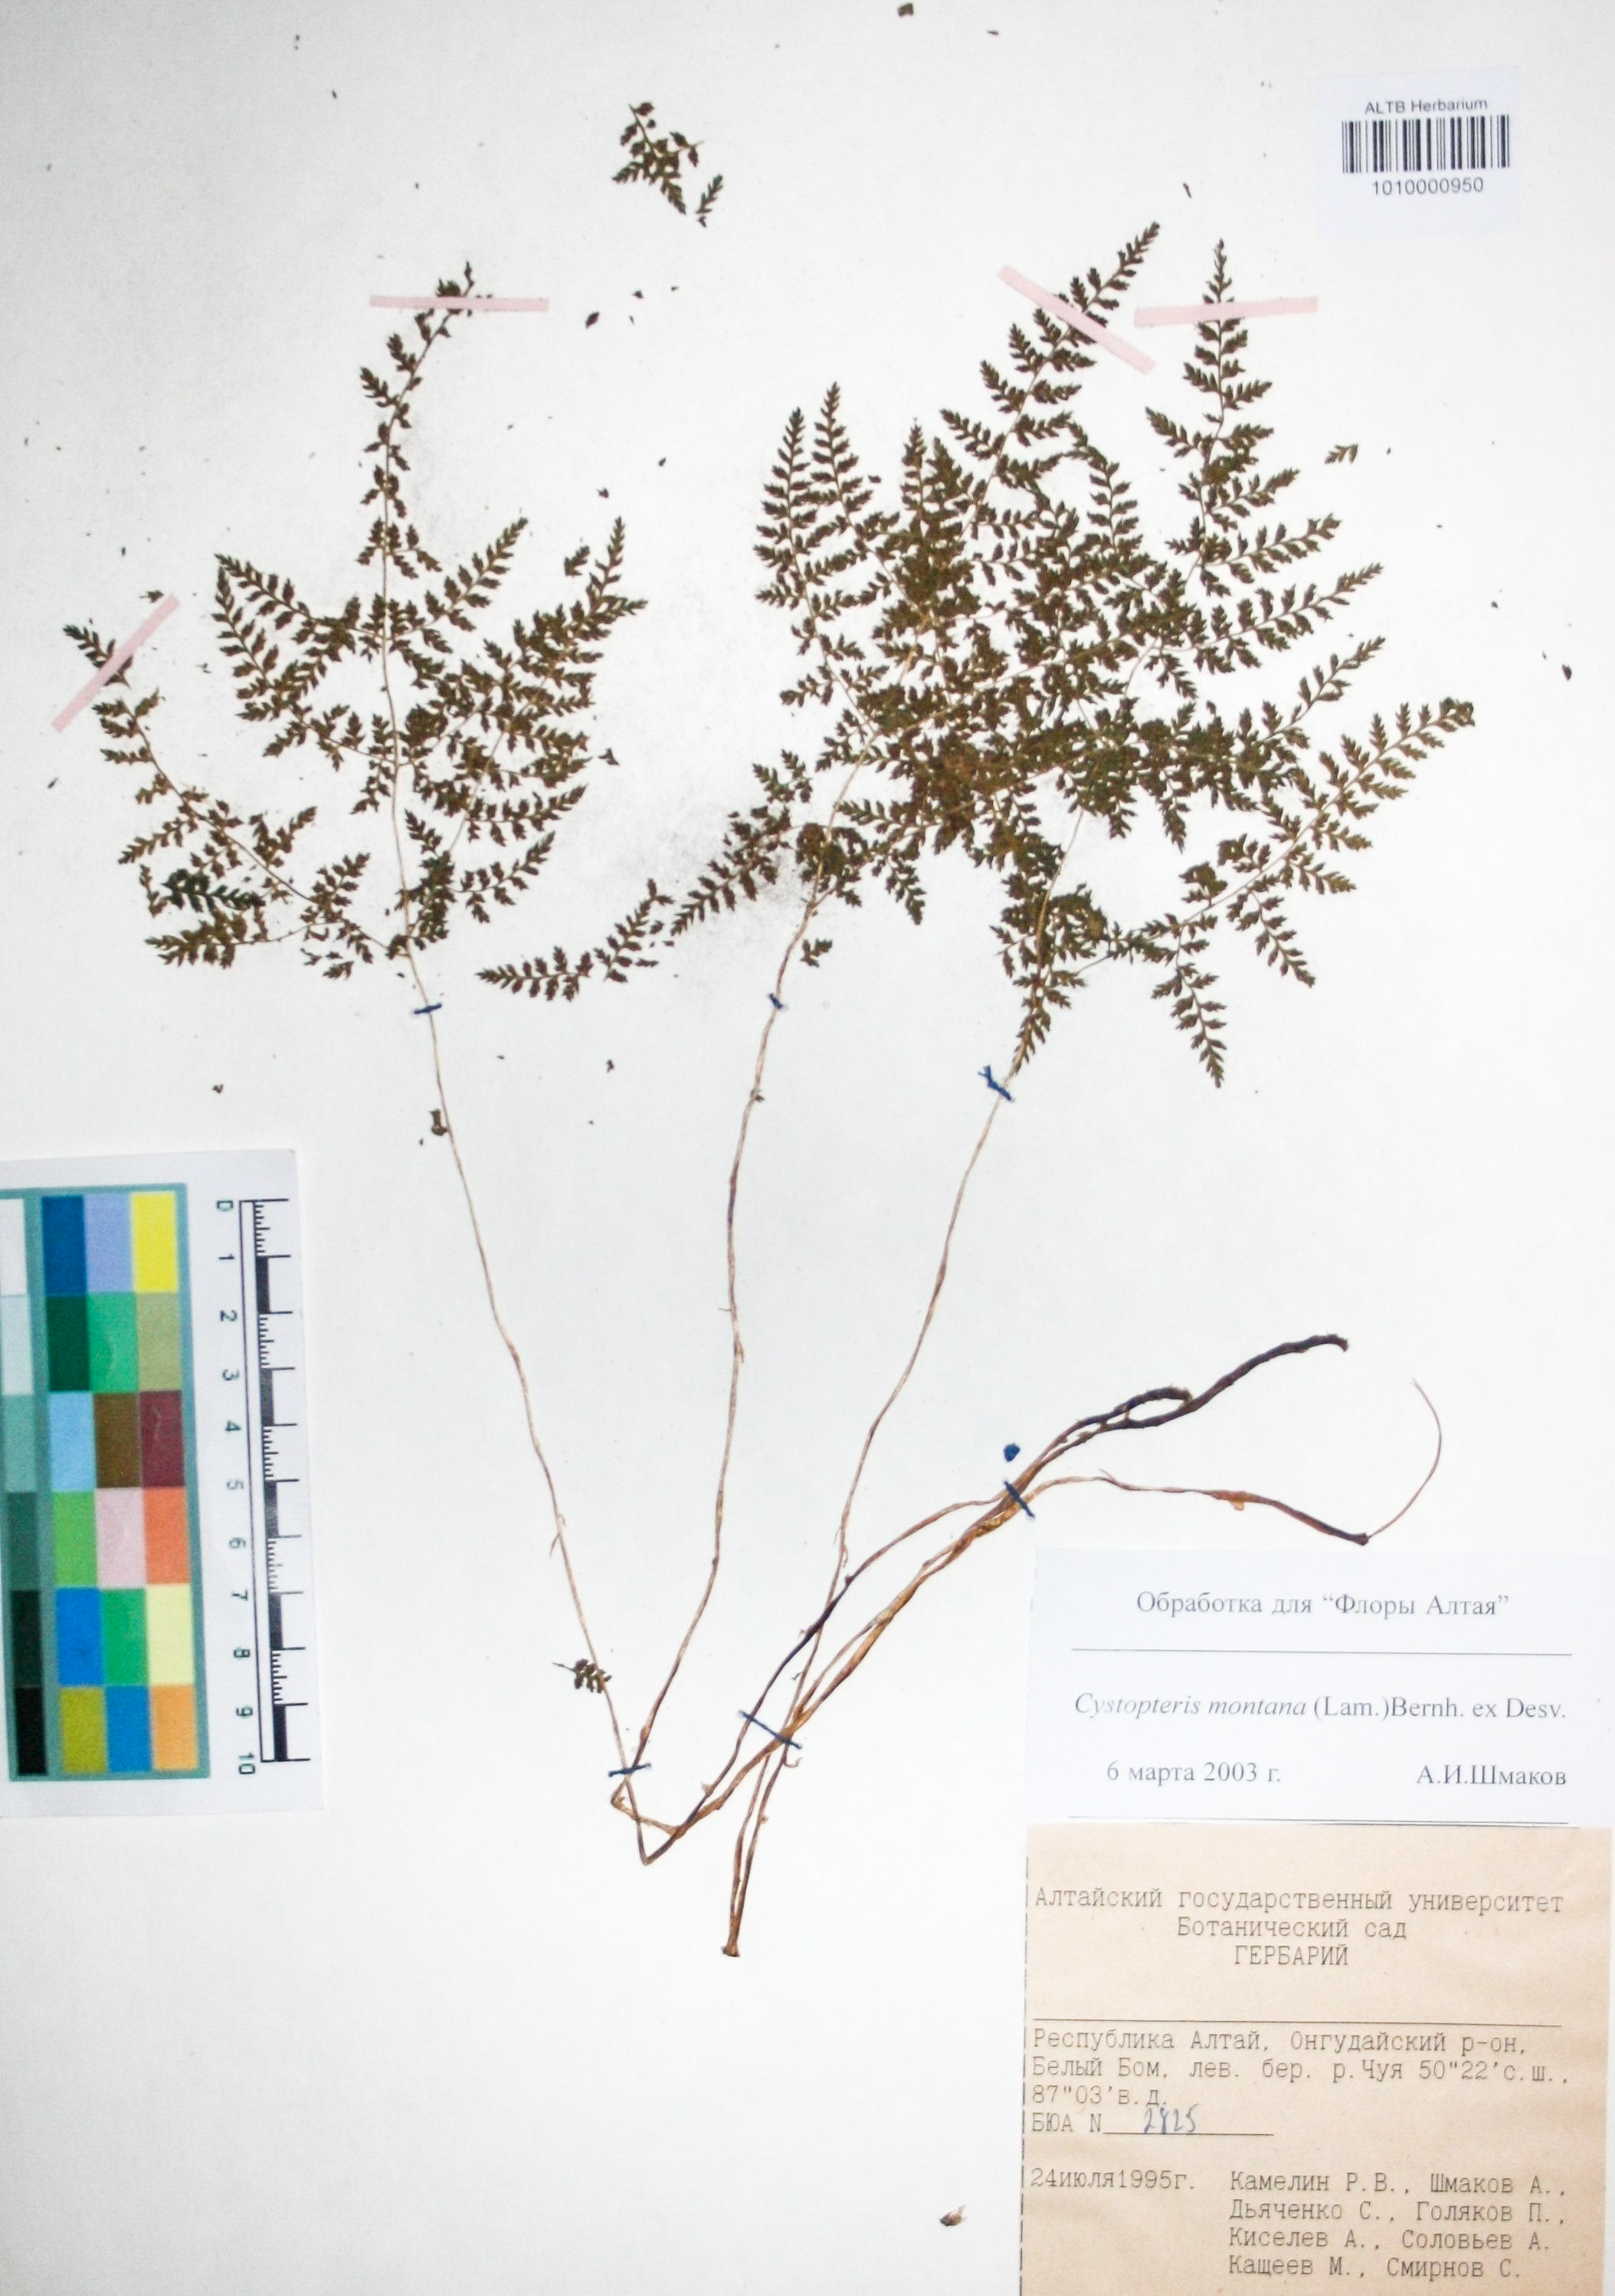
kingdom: Plantae
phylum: Tracheophyta
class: Polypodiopsida
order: Polypodiales
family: Cystopteridaceae
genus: Cystopteris
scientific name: Cystopteris montana
